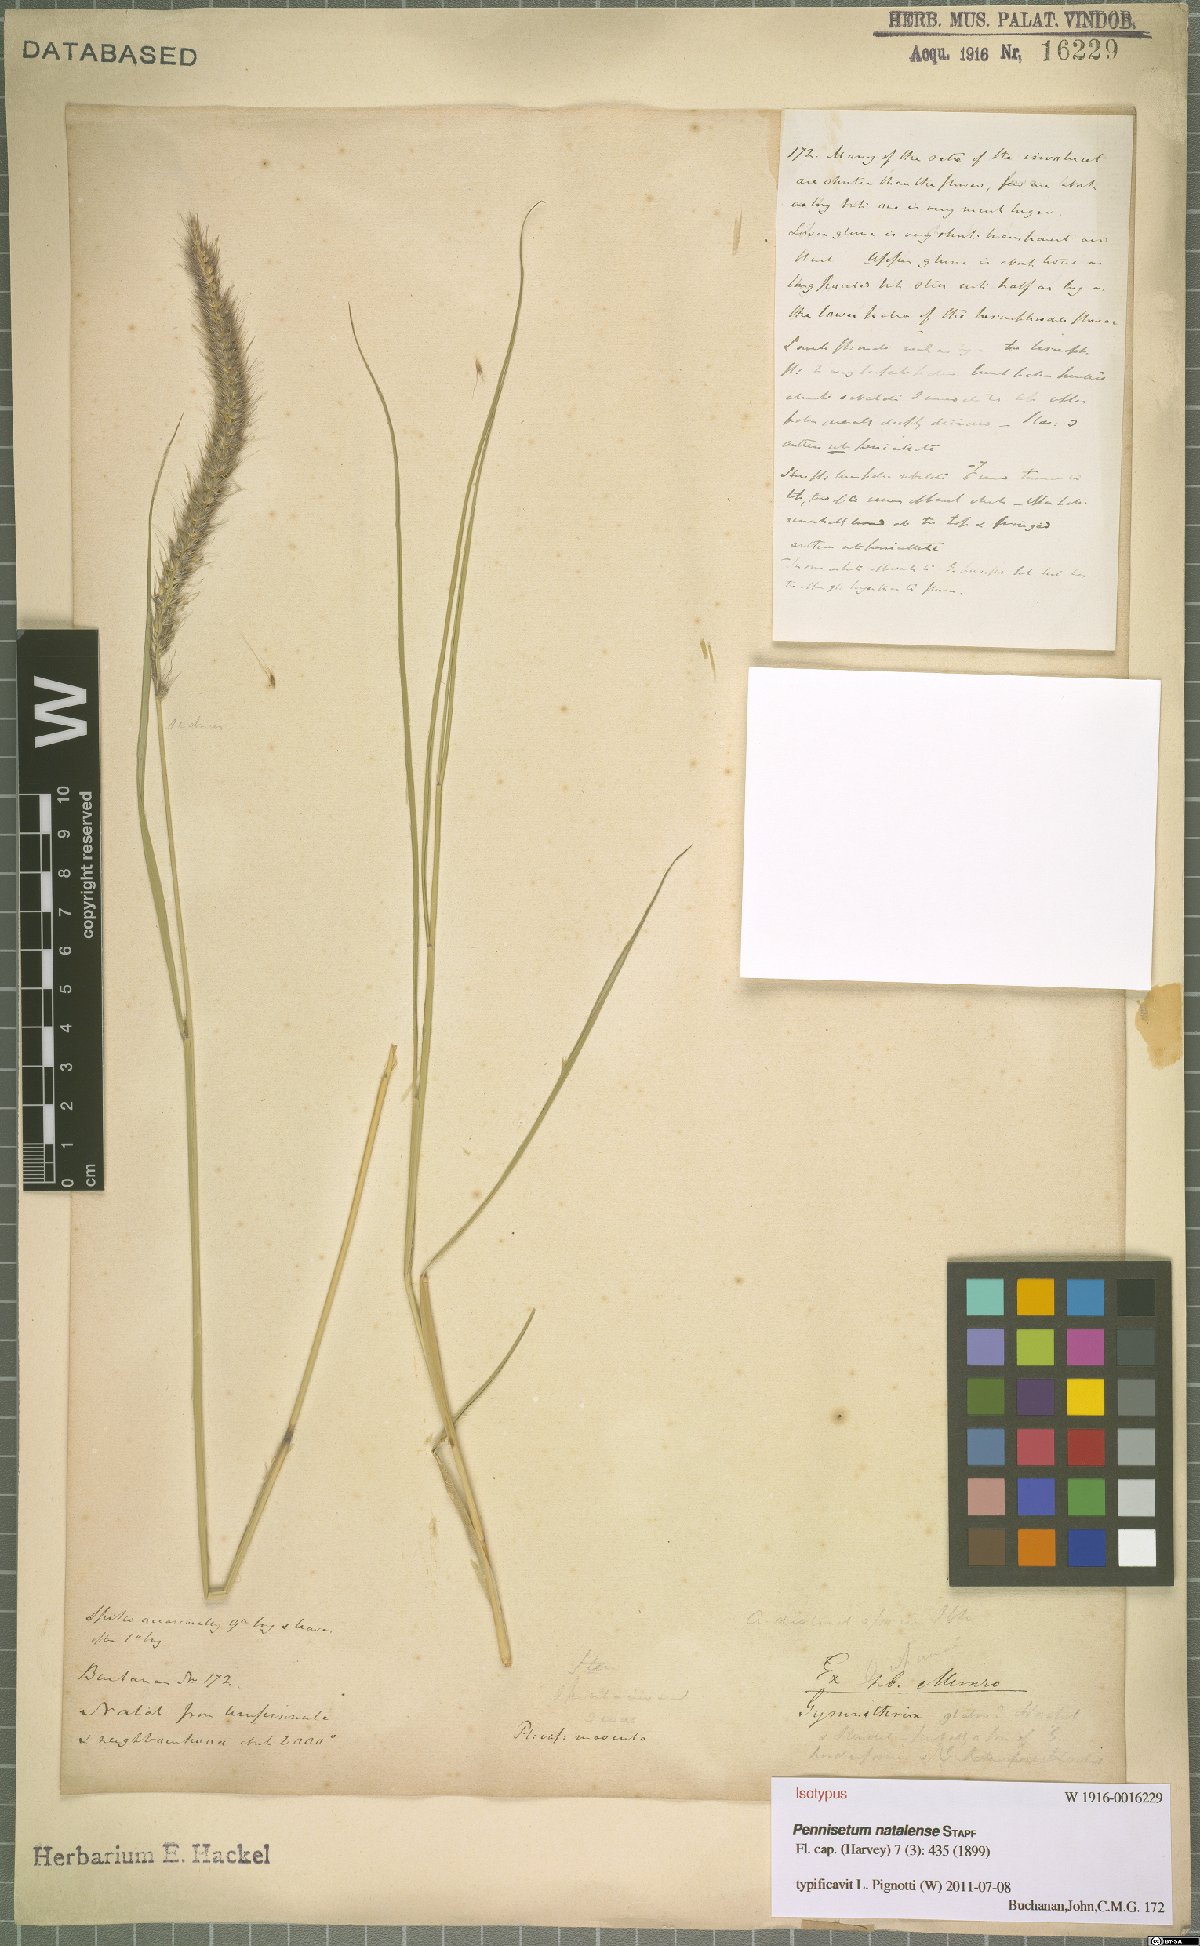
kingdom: Plantae
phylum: Tracheophyta
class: Liliopsida
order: Poales
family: Poaceae
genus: Cenchrus
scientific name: Cenchrus caudatus
